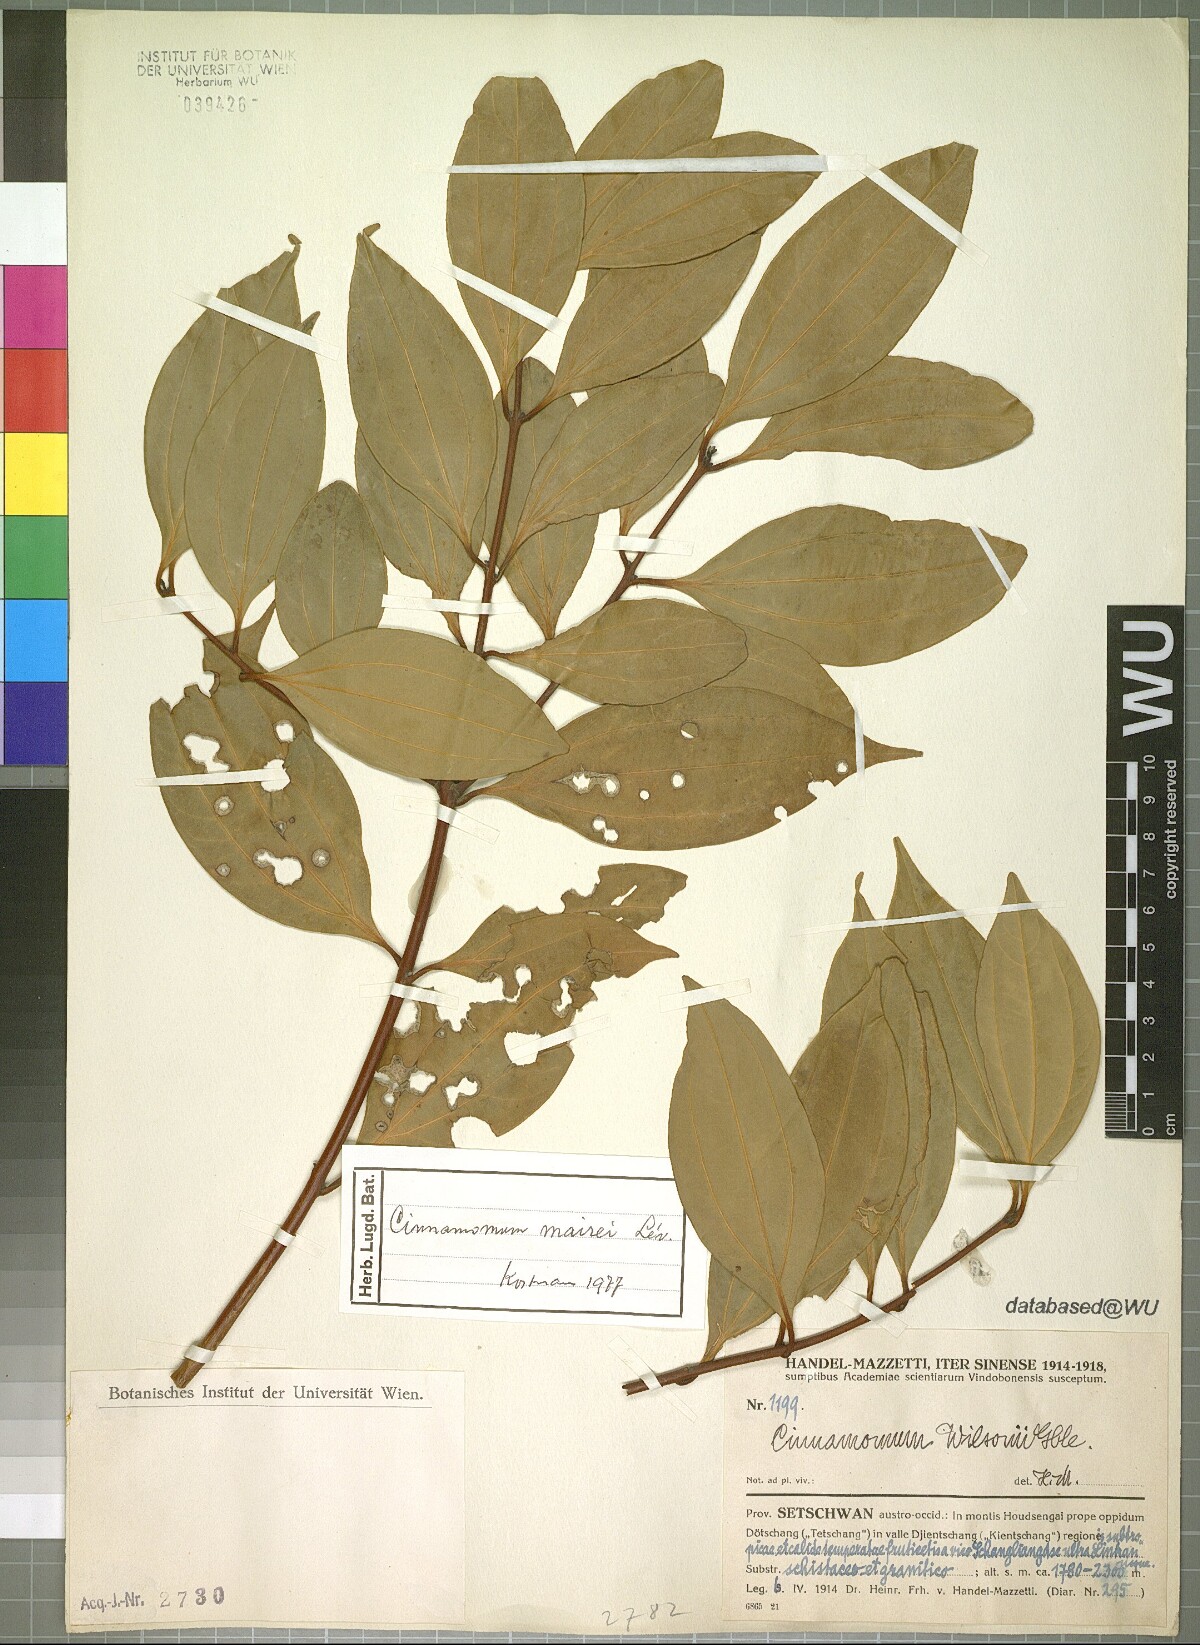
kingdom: Plantae
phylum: Tracheophyta
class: Magnoliopsida
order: Laurales
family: Lauraceae
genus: Cinnamomum
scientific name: Cinnamomum mairei
